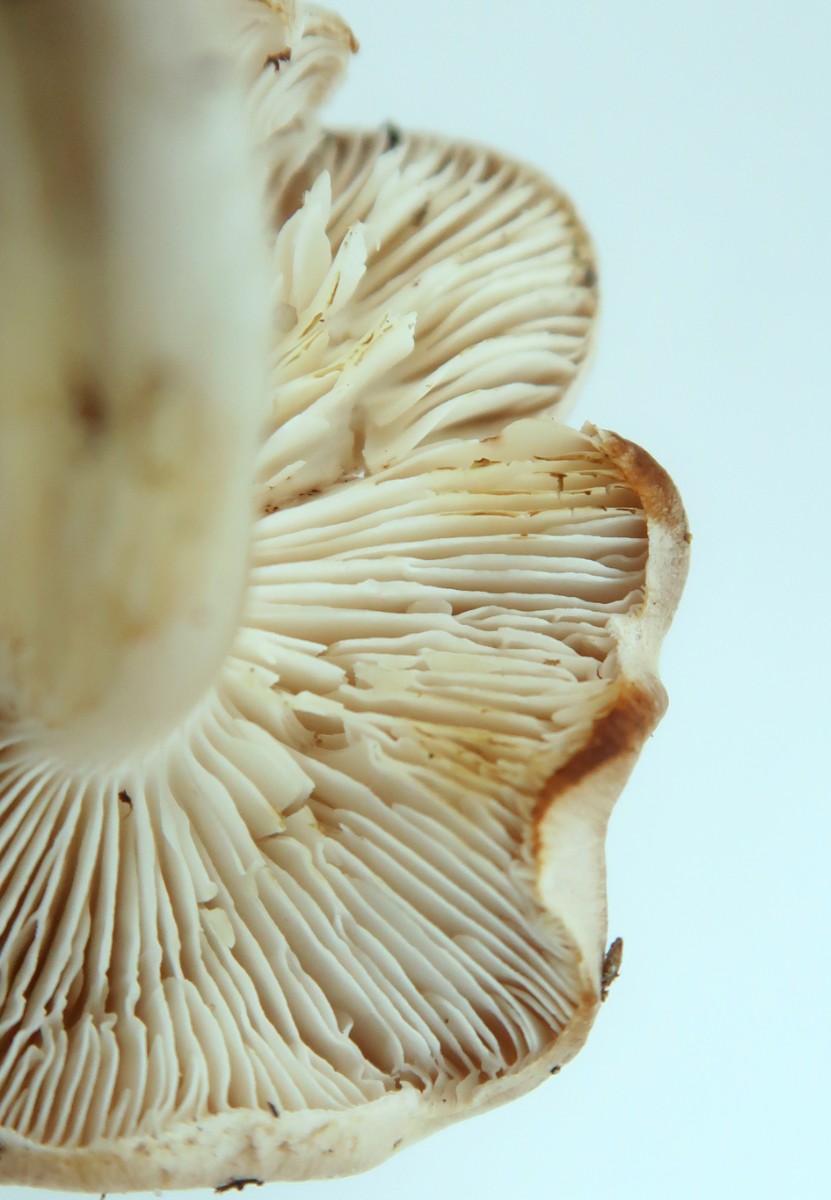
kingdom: Fungi
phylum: Basidiomycota
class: Agaricomycetes
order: Agaricales
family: Tricholomataceae
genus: Tricholoma
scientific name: Tricholoma scalpturatum
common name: gulplettet ridderhat
